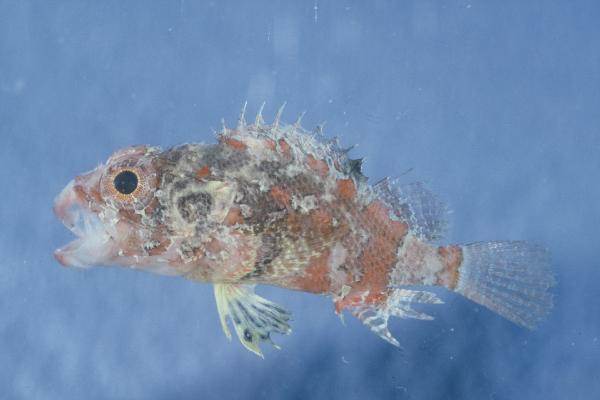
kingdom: Animalia
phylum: Chordata
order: Scorpaeniformes
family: Scorpaenidae
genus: Scorpaenodes
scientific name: Scorpaenodes varipinnis
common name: Blotchfin scorpionfish
